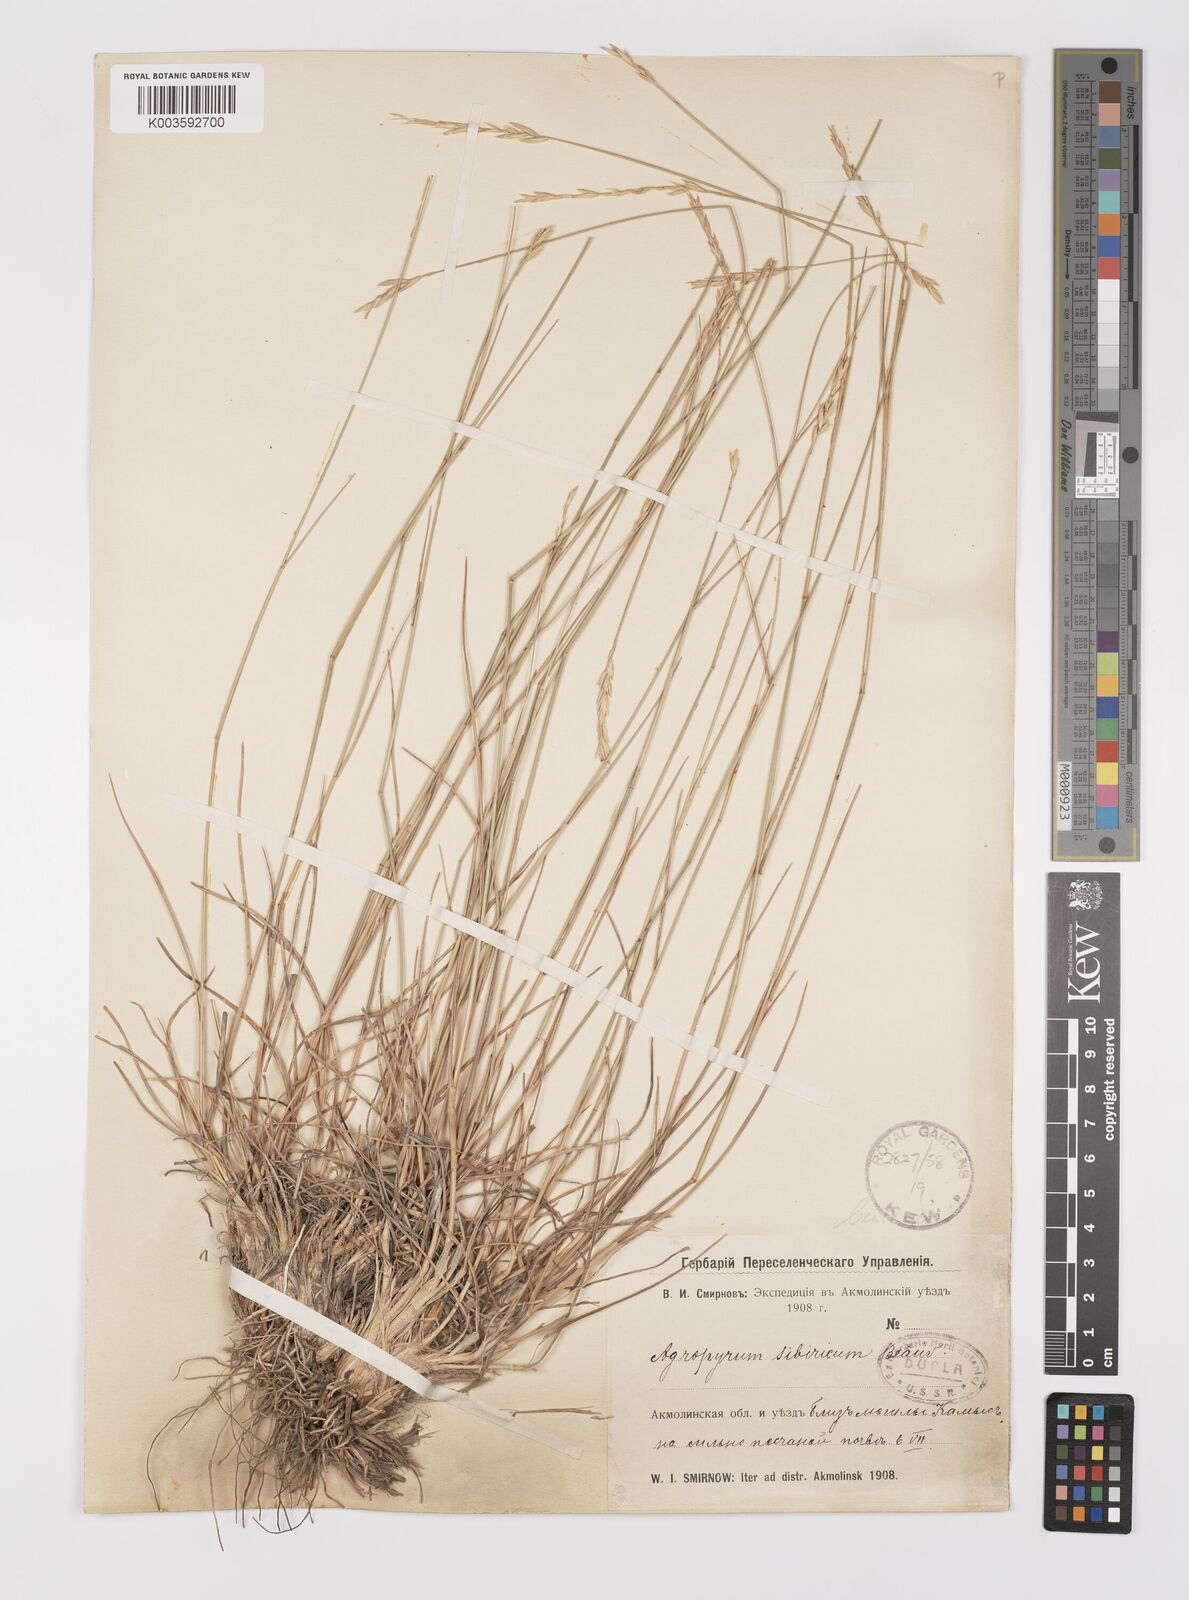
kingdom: Plantae
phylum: Tracheophyta
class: Liliopsida
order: Poales
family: Poaceae
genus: Agropyron
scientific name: Agropyron fragile
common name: Siberian wheatgrass
